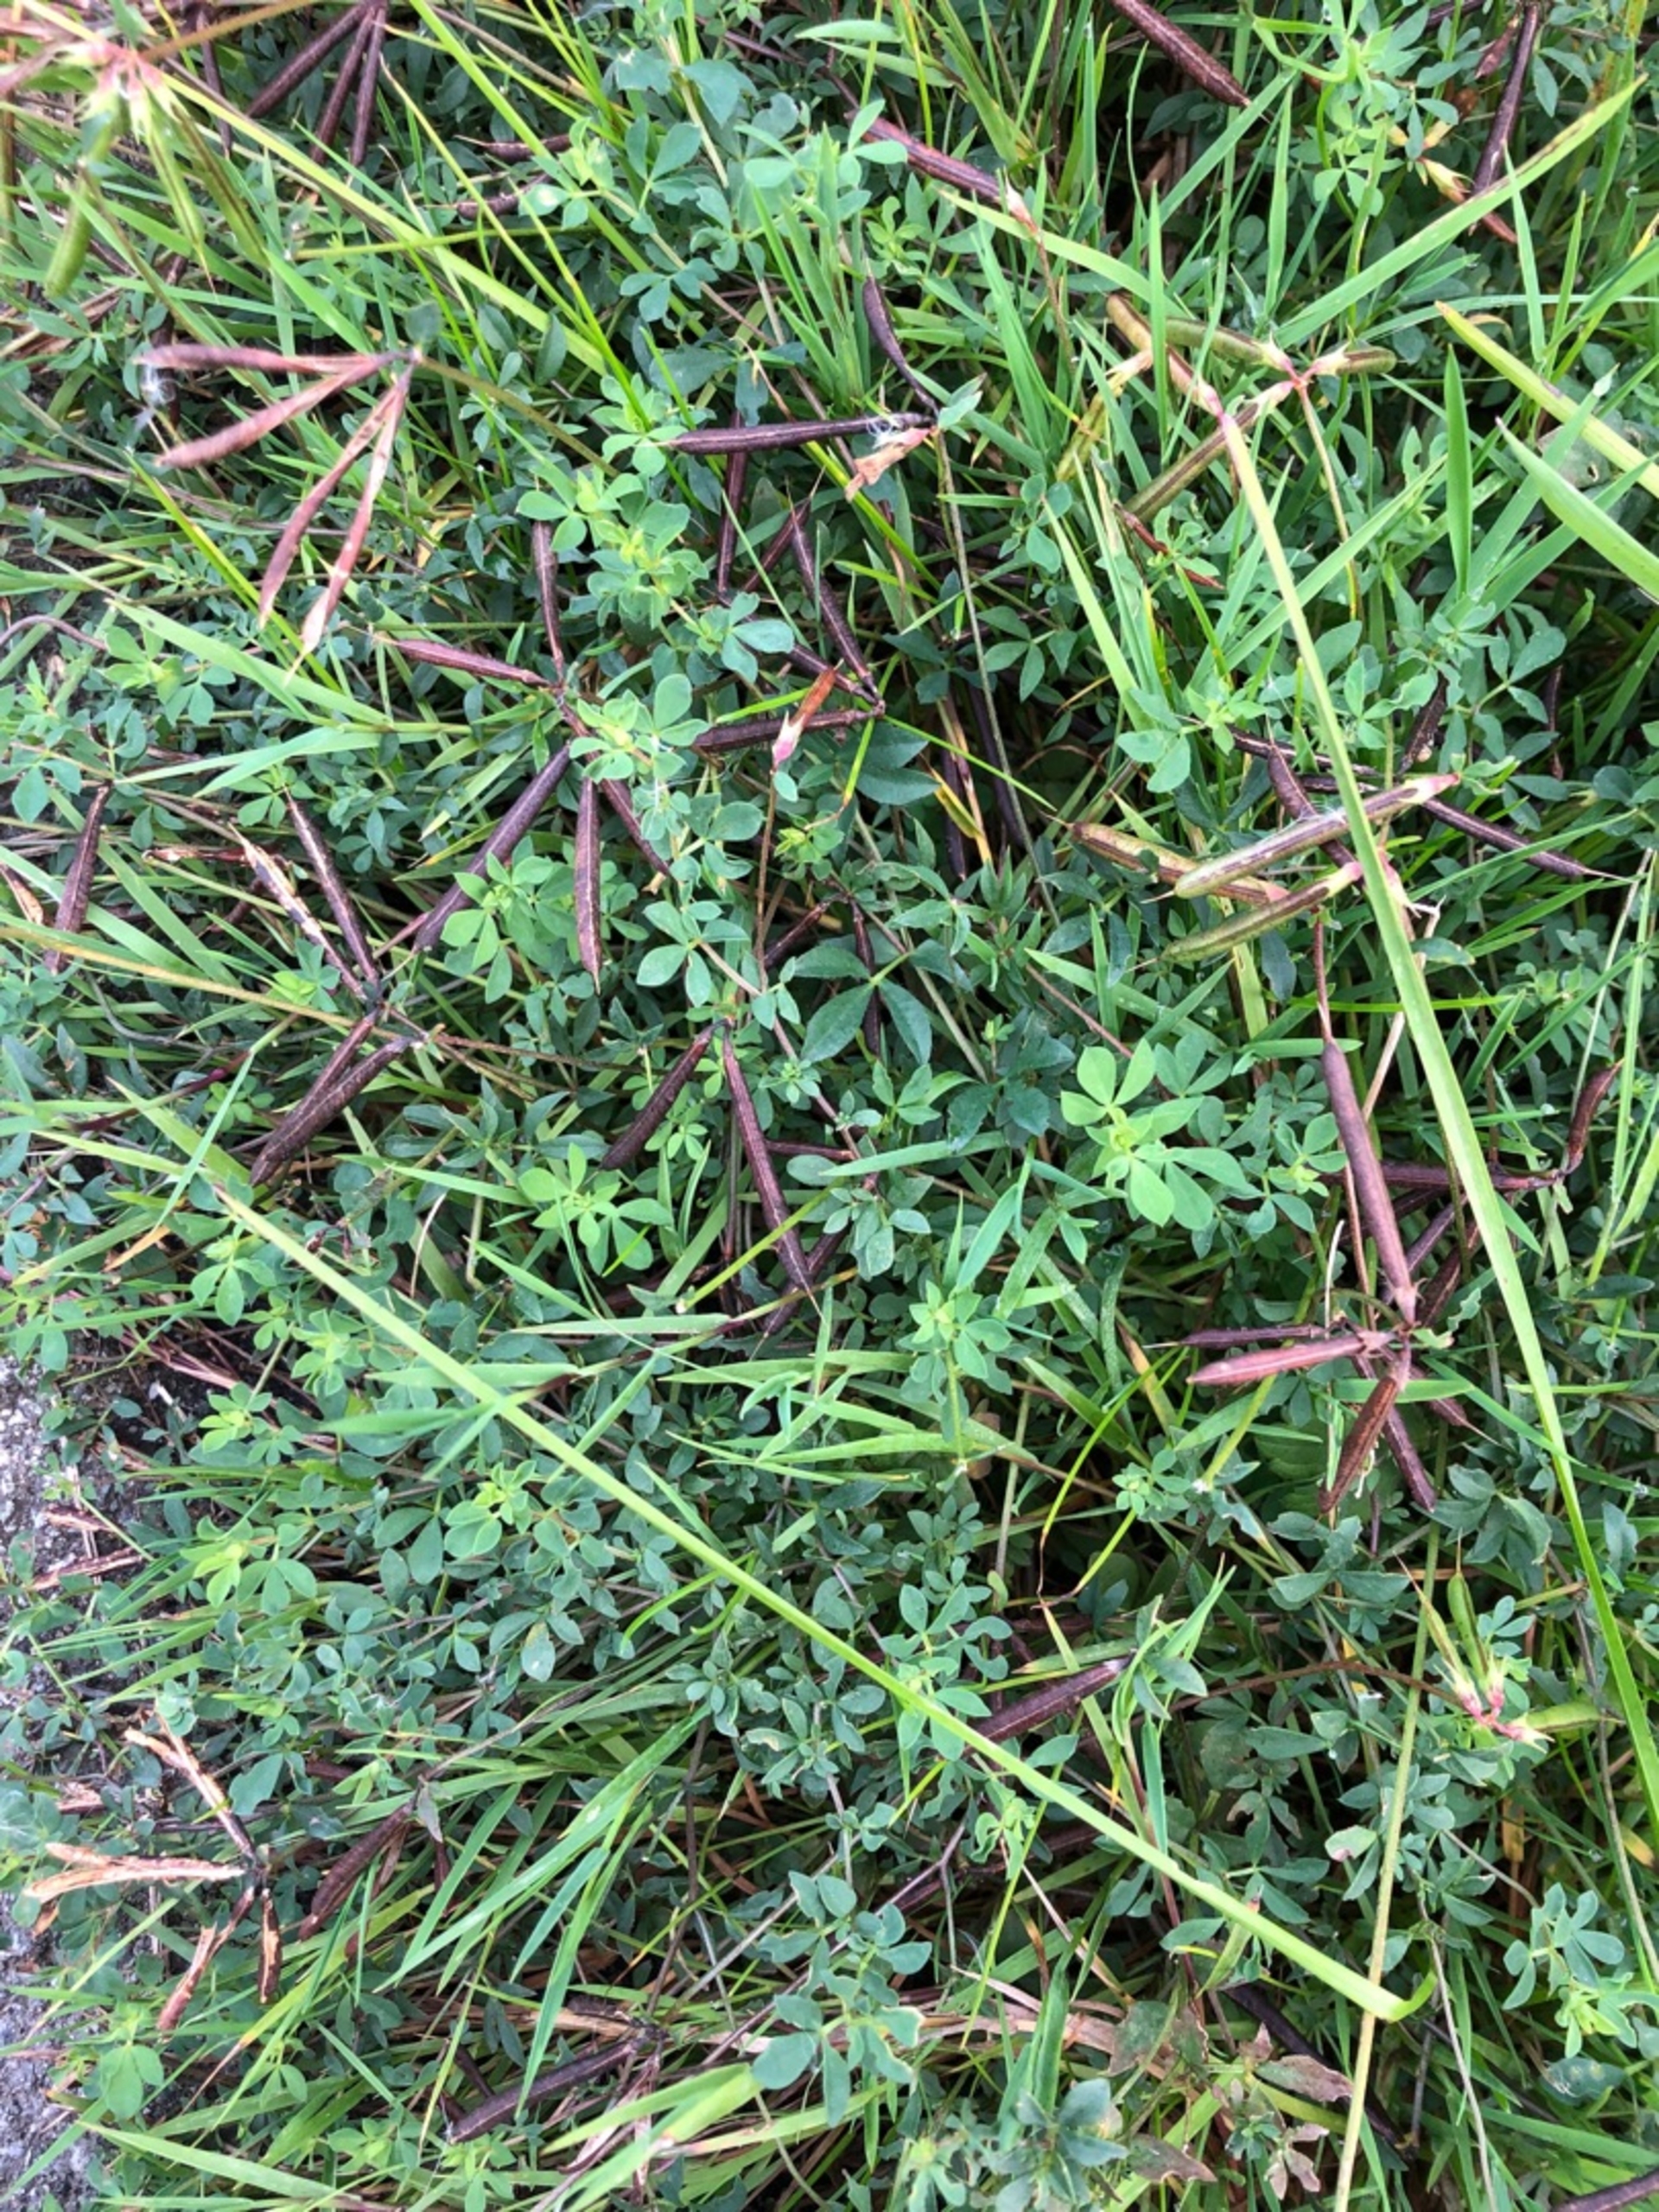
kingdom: Plantae
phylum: Tracheophyta
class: Magnoliopsida
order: Fabales
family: Fabaceae
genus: Lotus
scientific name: Lotus corniculatus
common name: Almindelig kællingetand
